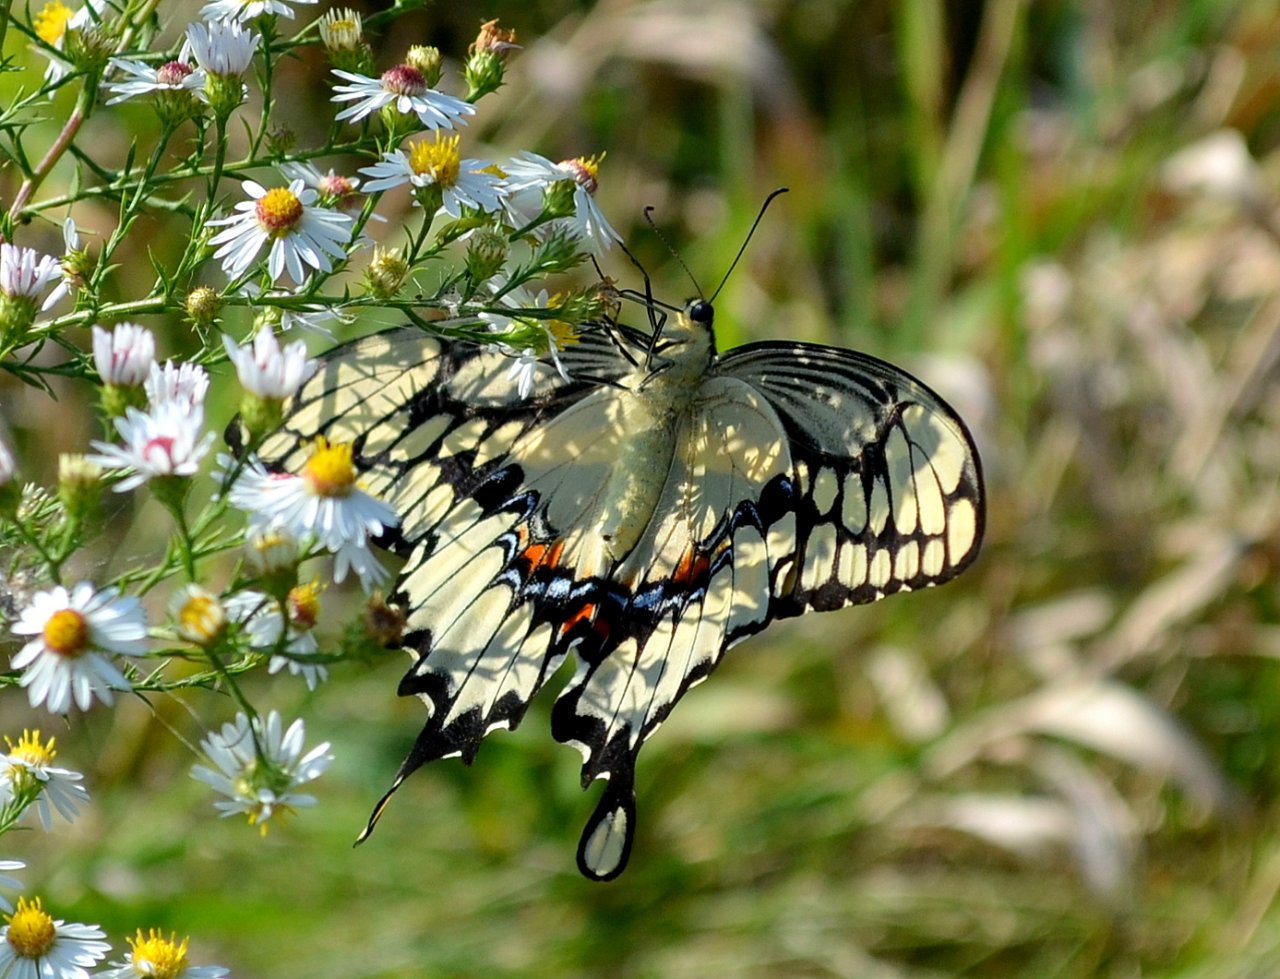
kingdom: Animalia
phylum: Arthropoda
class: Insecta
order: Lepidoptera
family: Papilionidae
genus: Papilio
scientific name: Papilio cresphontes
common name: Eastern Giant Swallowtail
